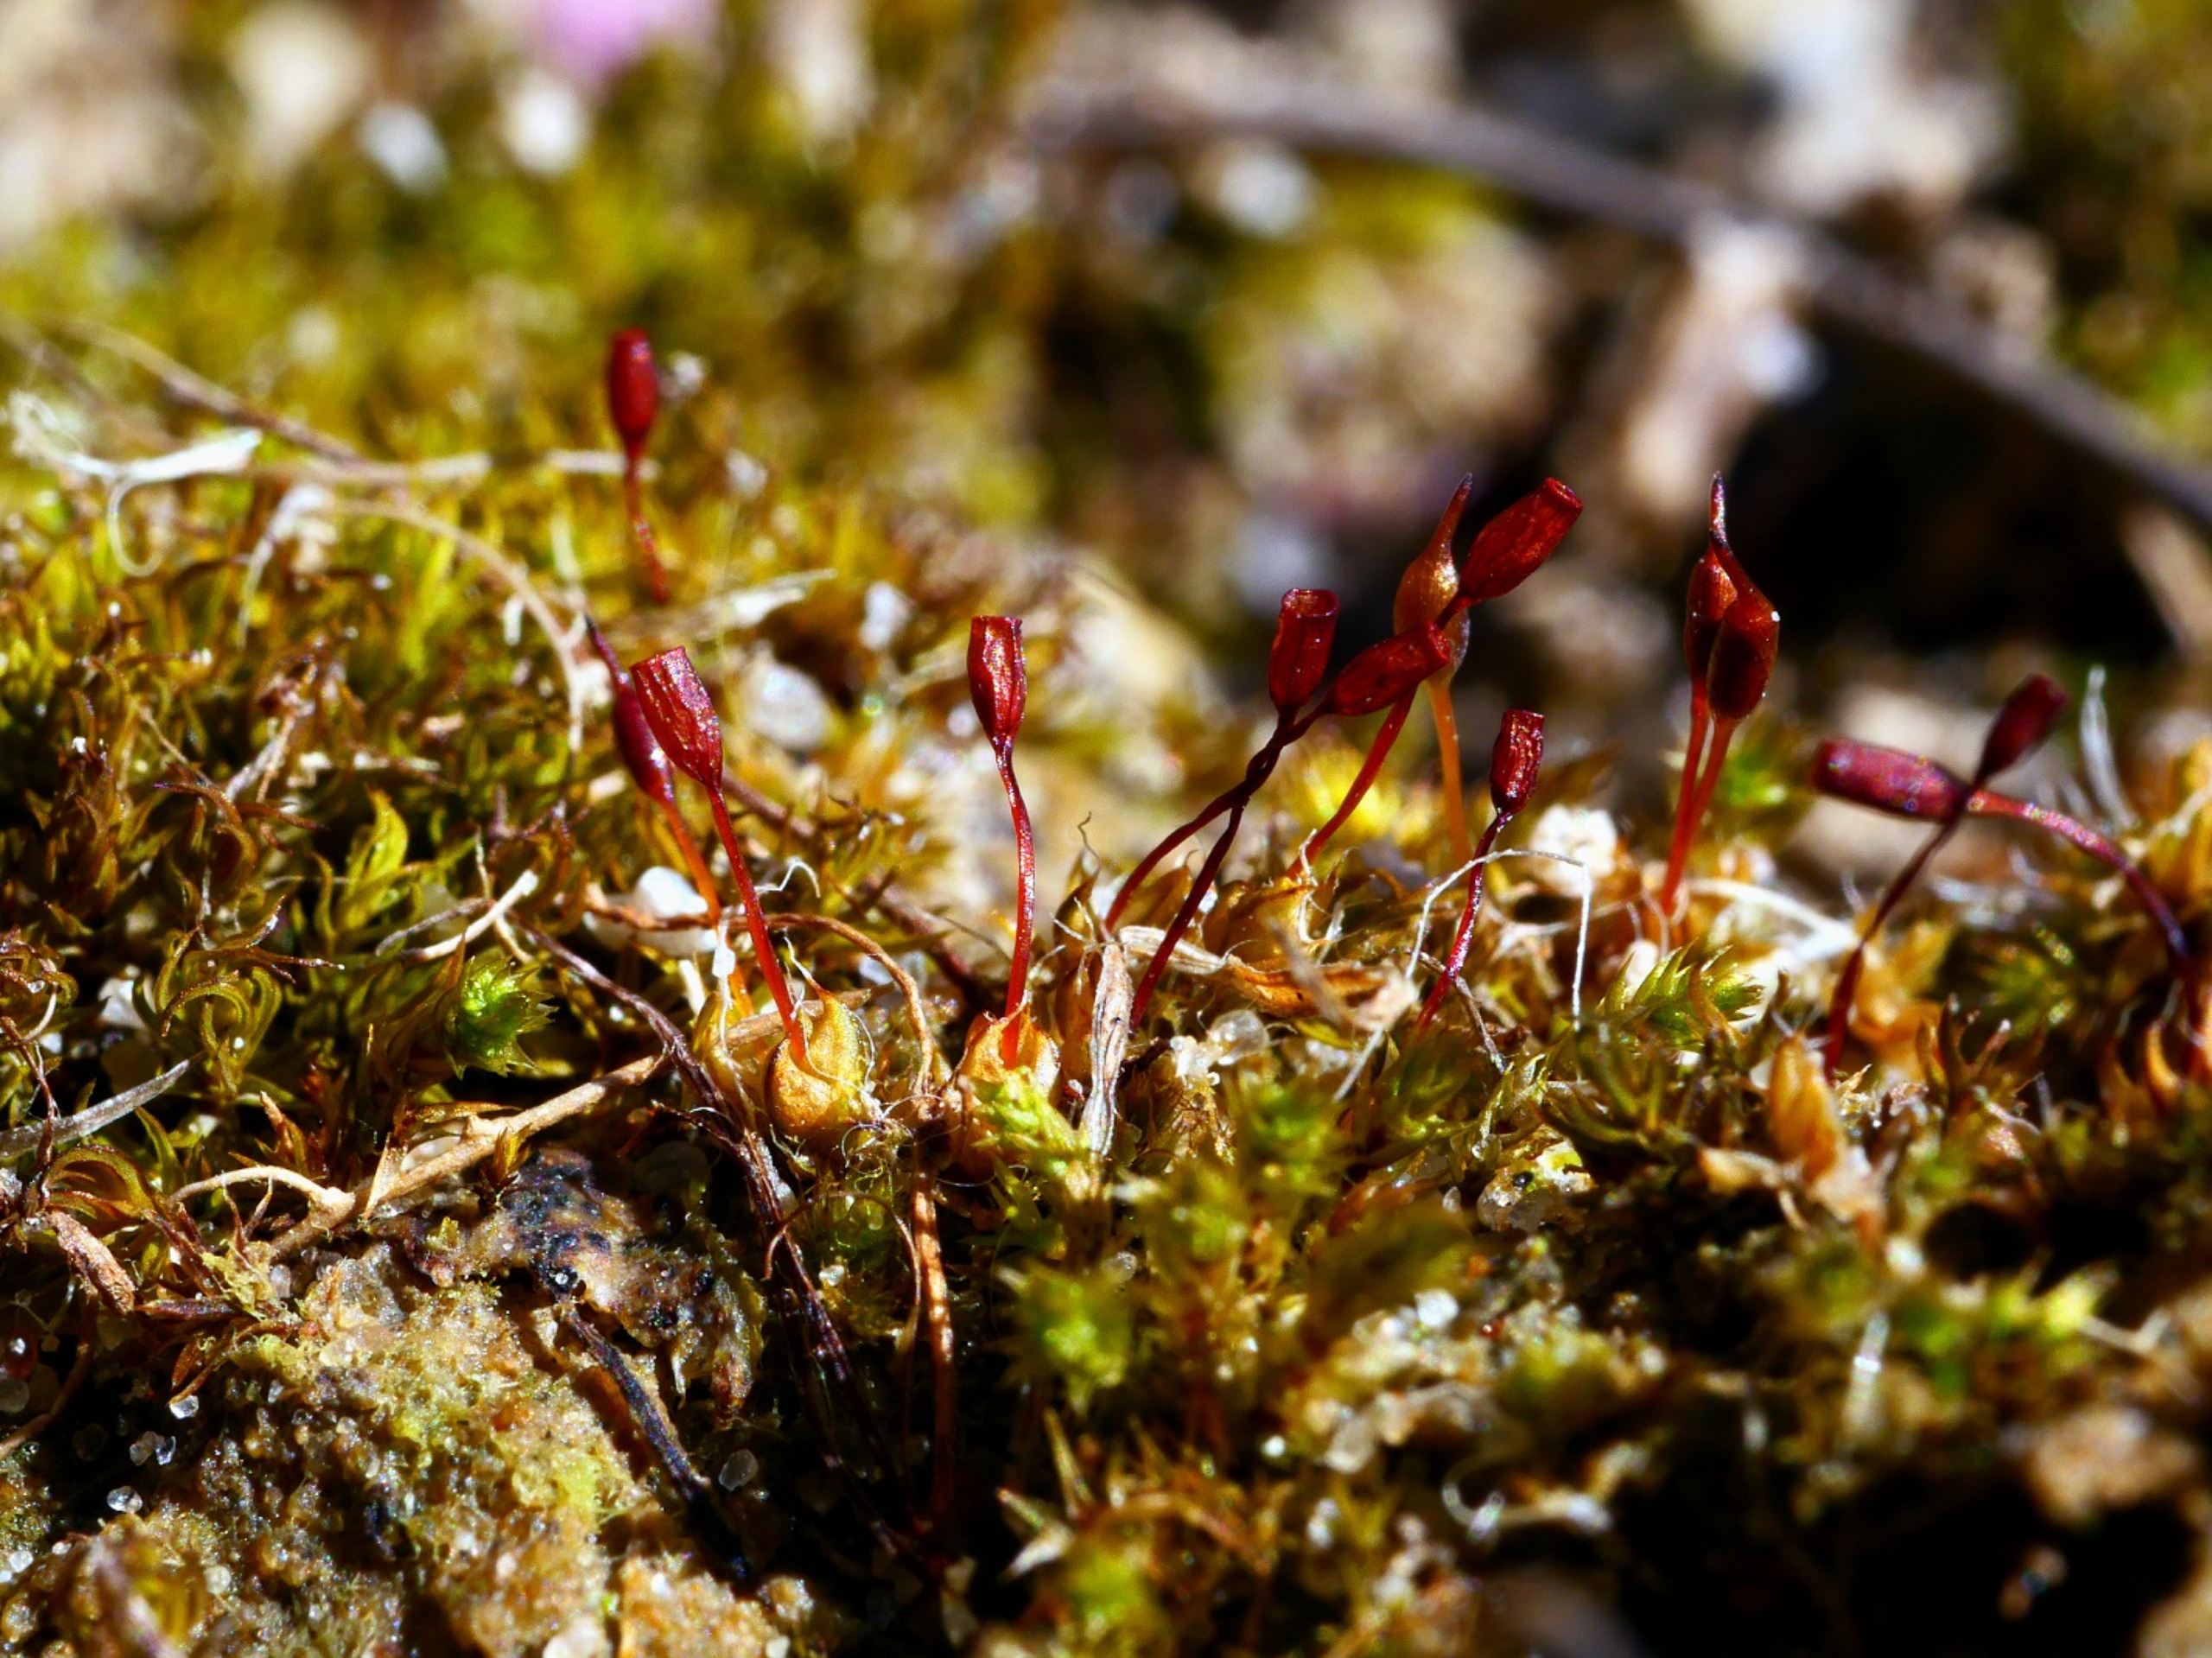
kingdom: Plantae
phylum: Bryophyta
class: Bryopsida
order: Pottiales
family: Pottiaceae
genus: Pterygoneurum
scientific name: Pterygoneurum ovatum
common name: Langhåret vingenerve
